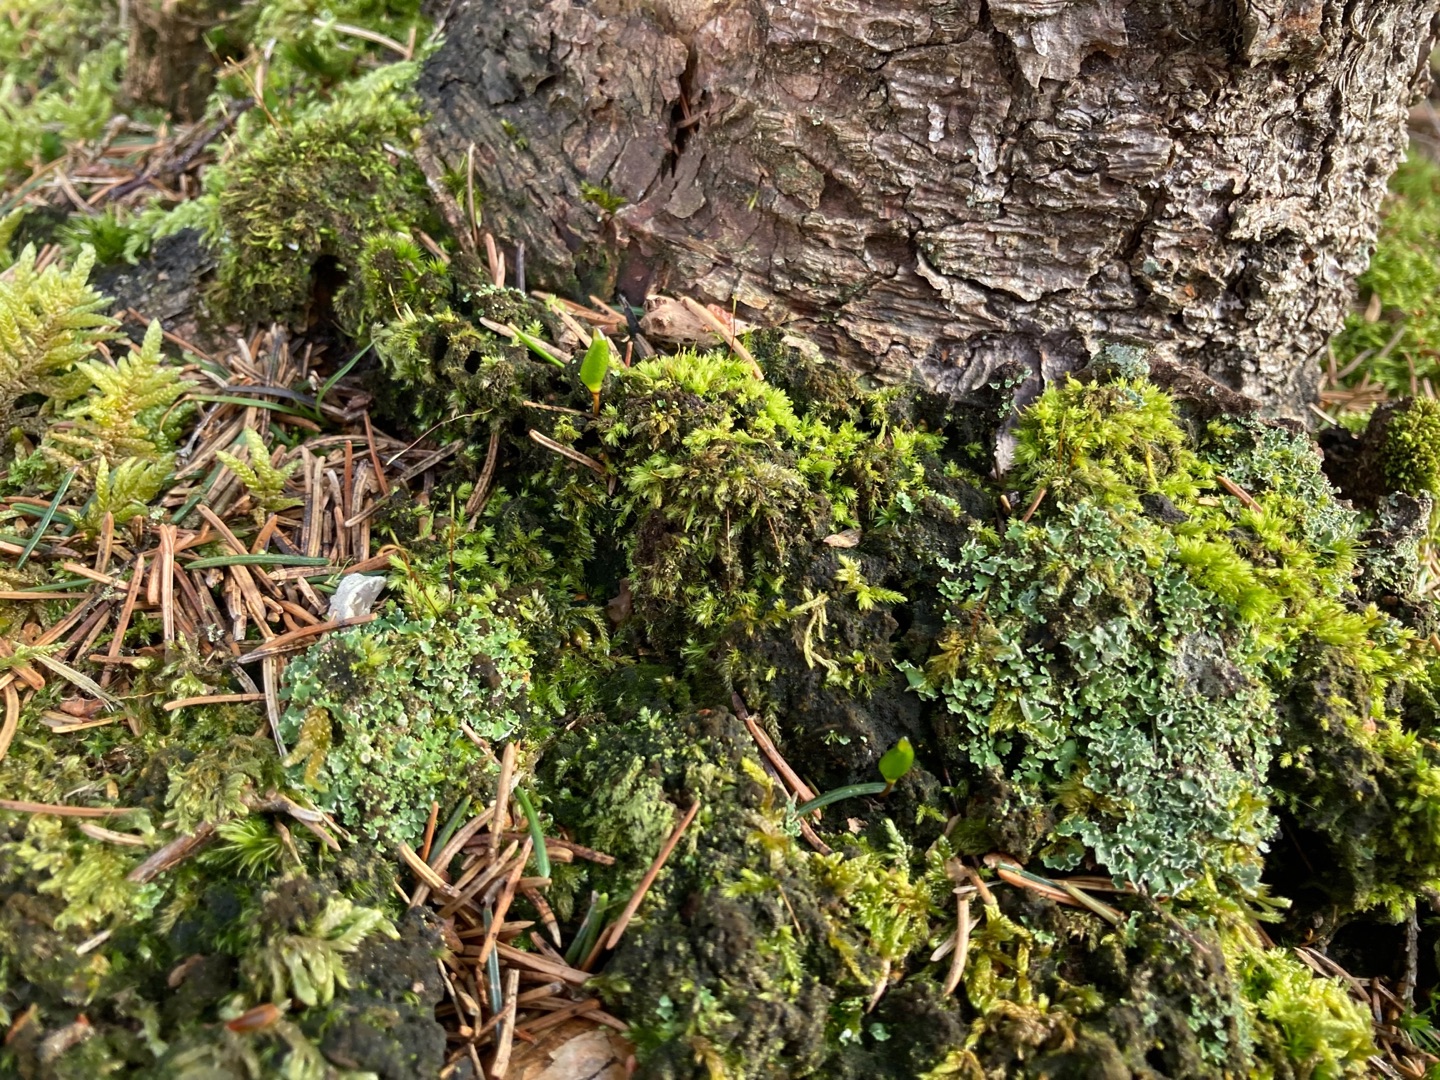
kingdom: Plantae
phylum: Bryophyta
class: Bryopsida
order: Buxbaumiales
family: Buxbaumiaceae
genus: Buxbaumia
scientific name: Buxbaumia viridis
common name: Grøn buxbaumia
